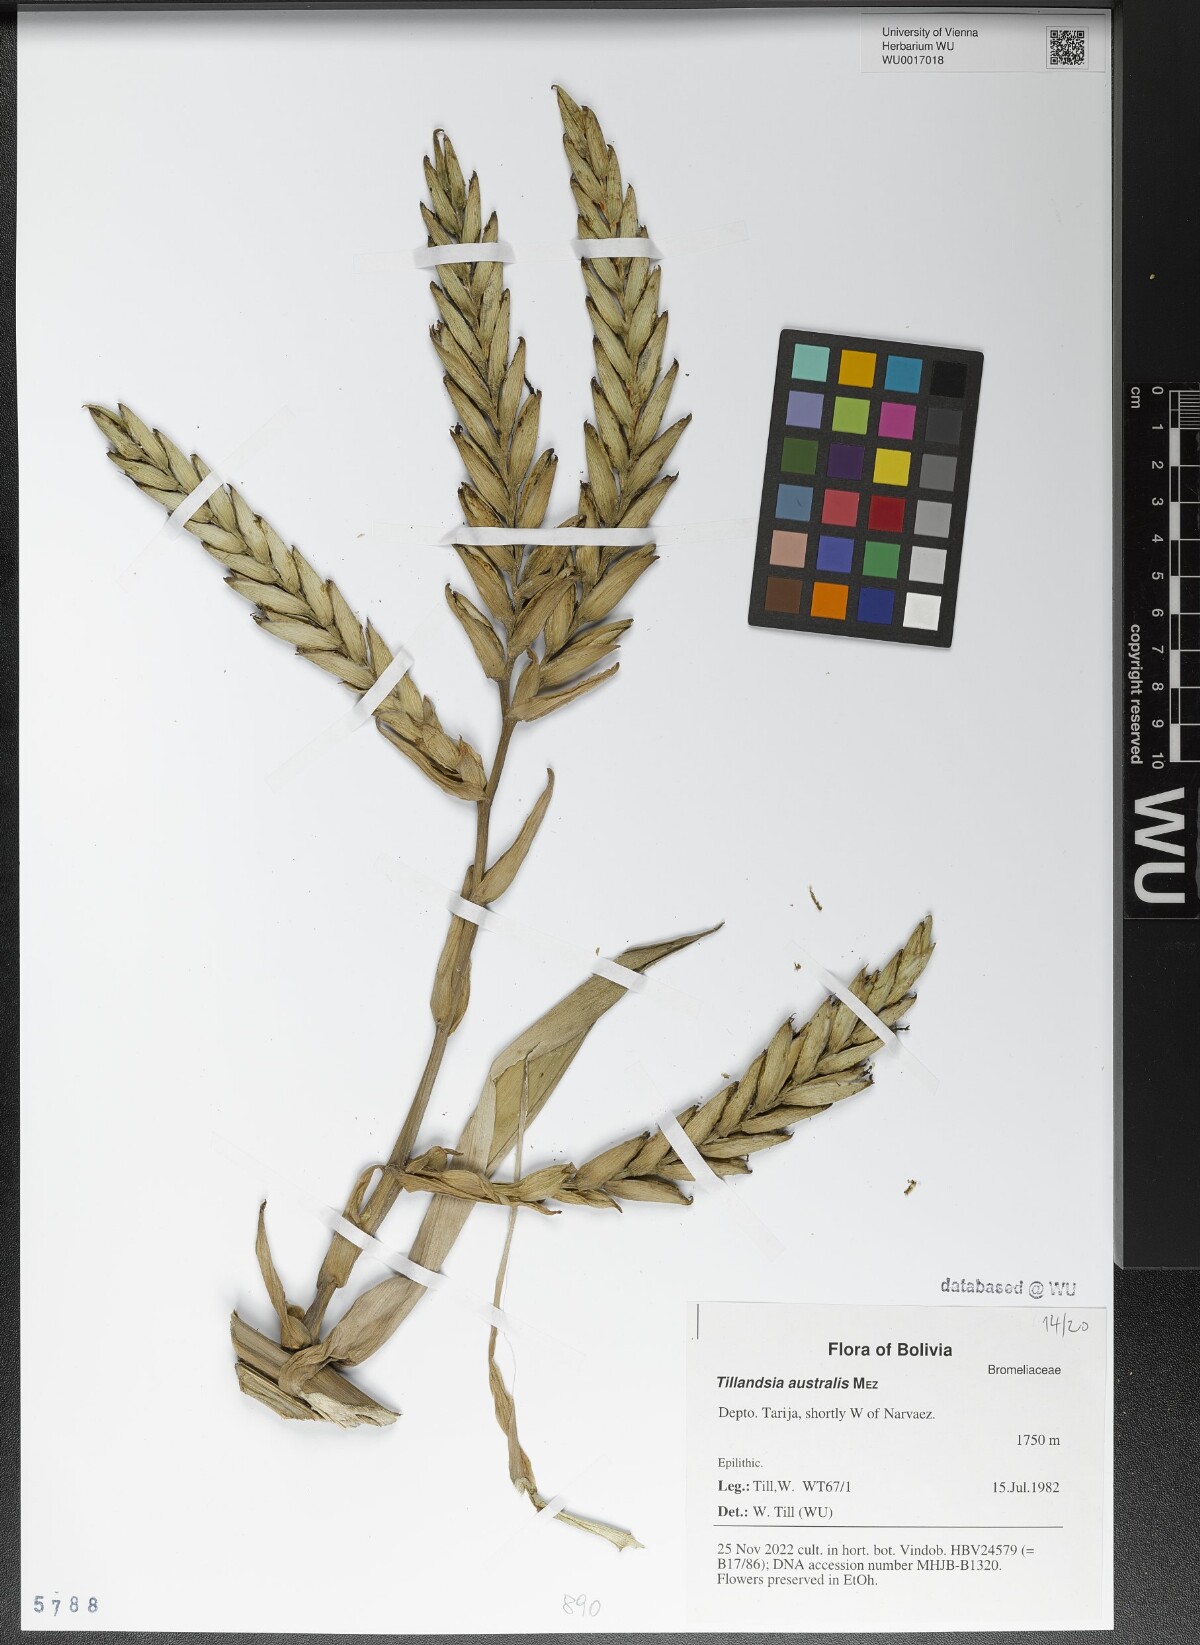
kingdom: Plantae
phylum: Tracheophyta
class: Liliopsida
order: Poales
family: Bromeliaceae
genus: Tillandsia
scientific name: Tillandsia australis
